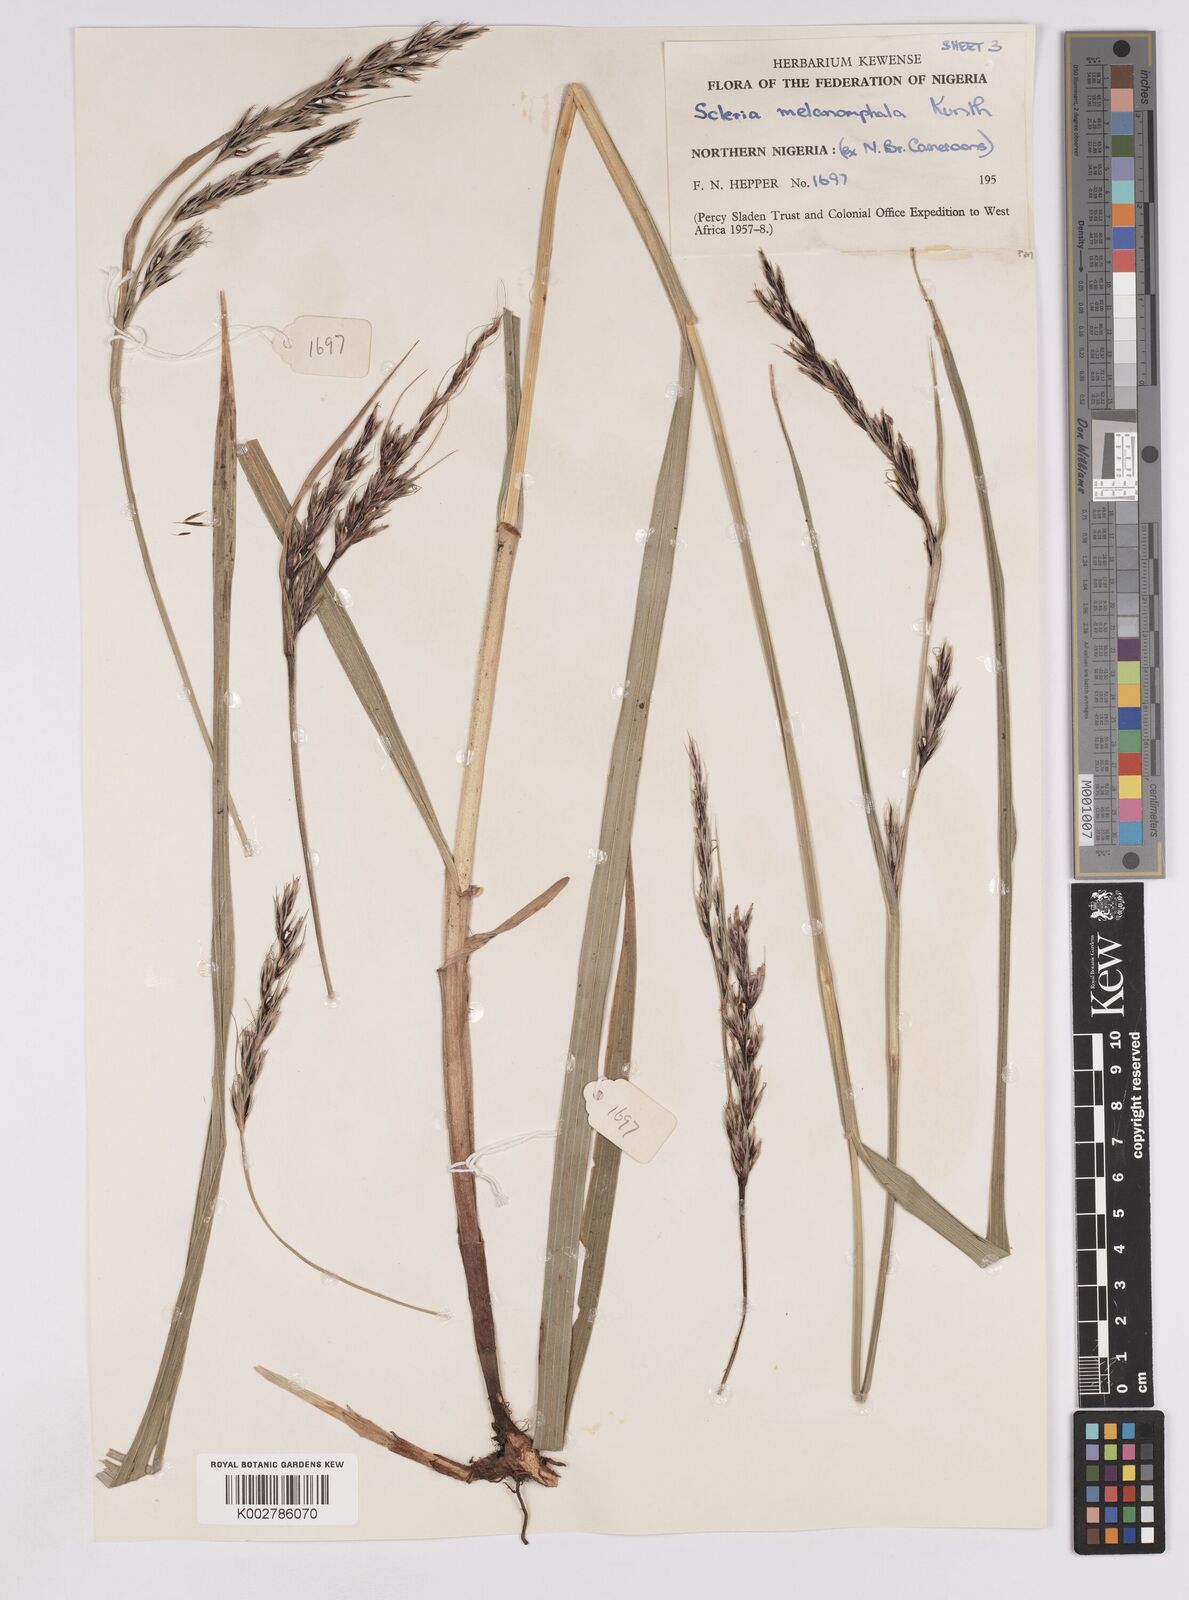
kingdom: Plantae
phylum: Tracheophyta
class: Liliopsida
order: Poales
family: Cyperaceae
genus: Scleria
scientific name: Scleria melanomphala
